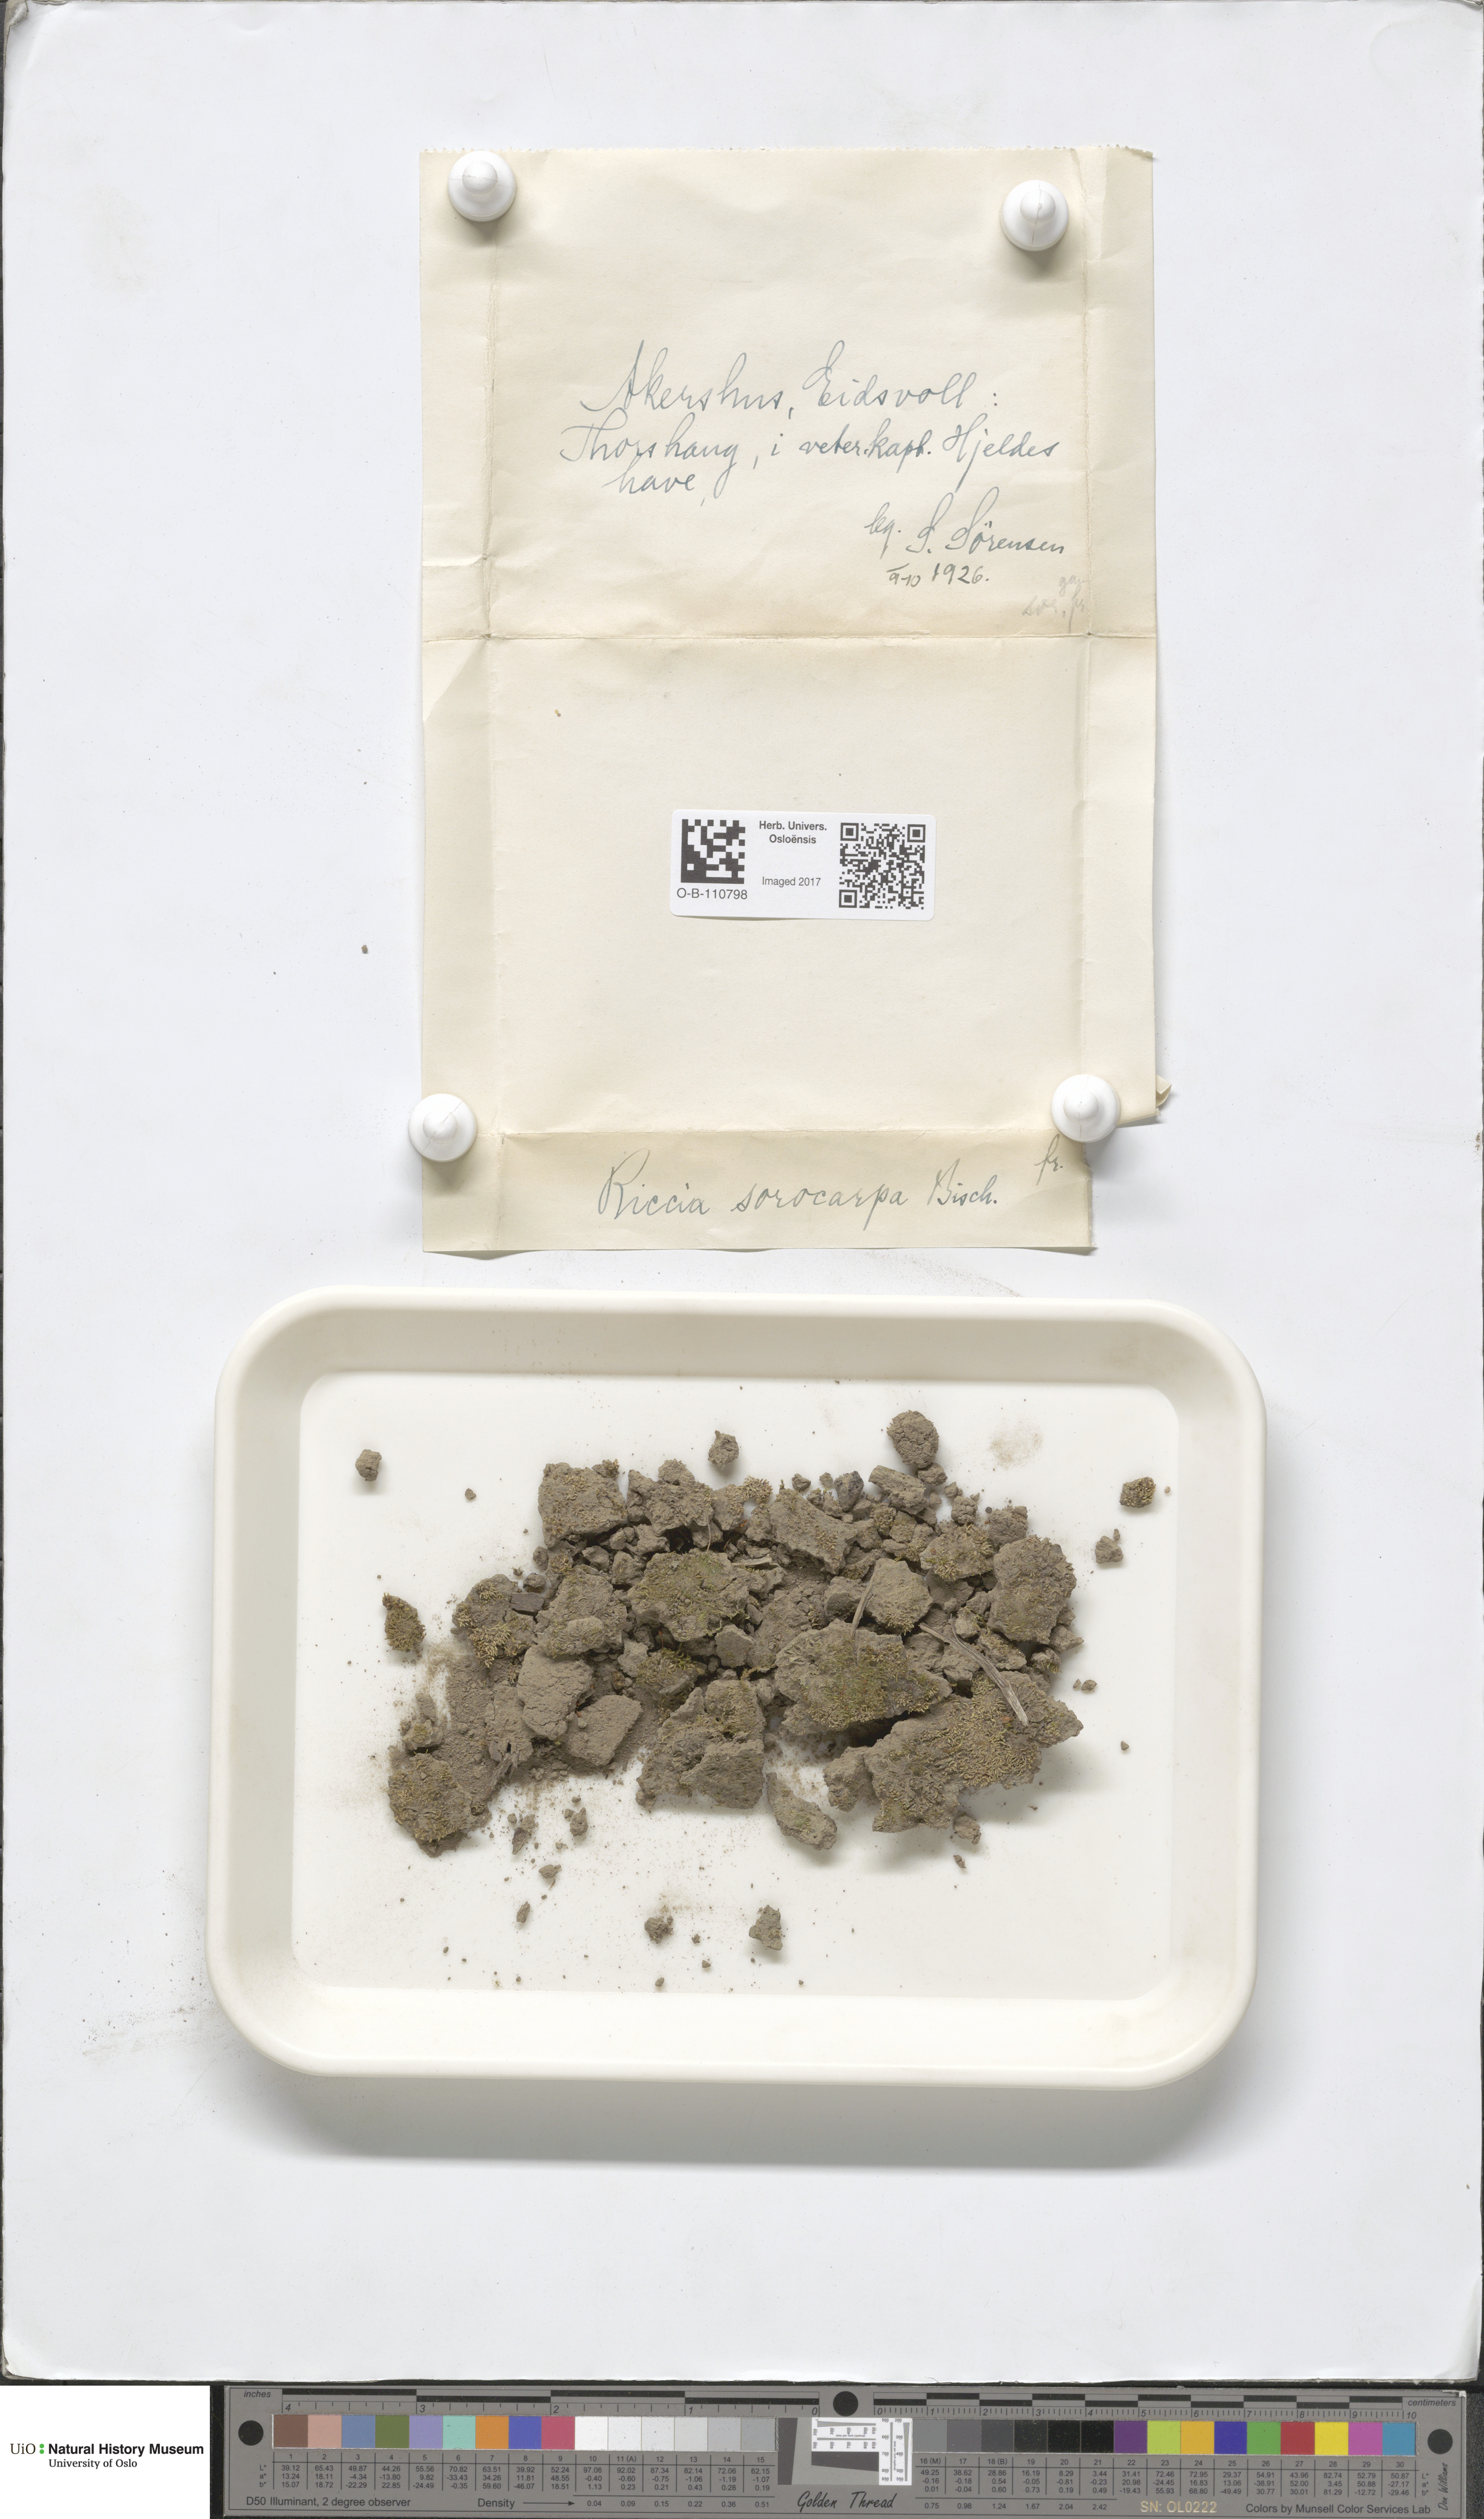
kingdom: Plantae
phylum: Marchantiophyta
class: Marchantiopsida
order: Marchantiales
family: Ricciaceae
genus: Riccia
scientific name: Riccia sorocarpa
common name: Common crystalwort
